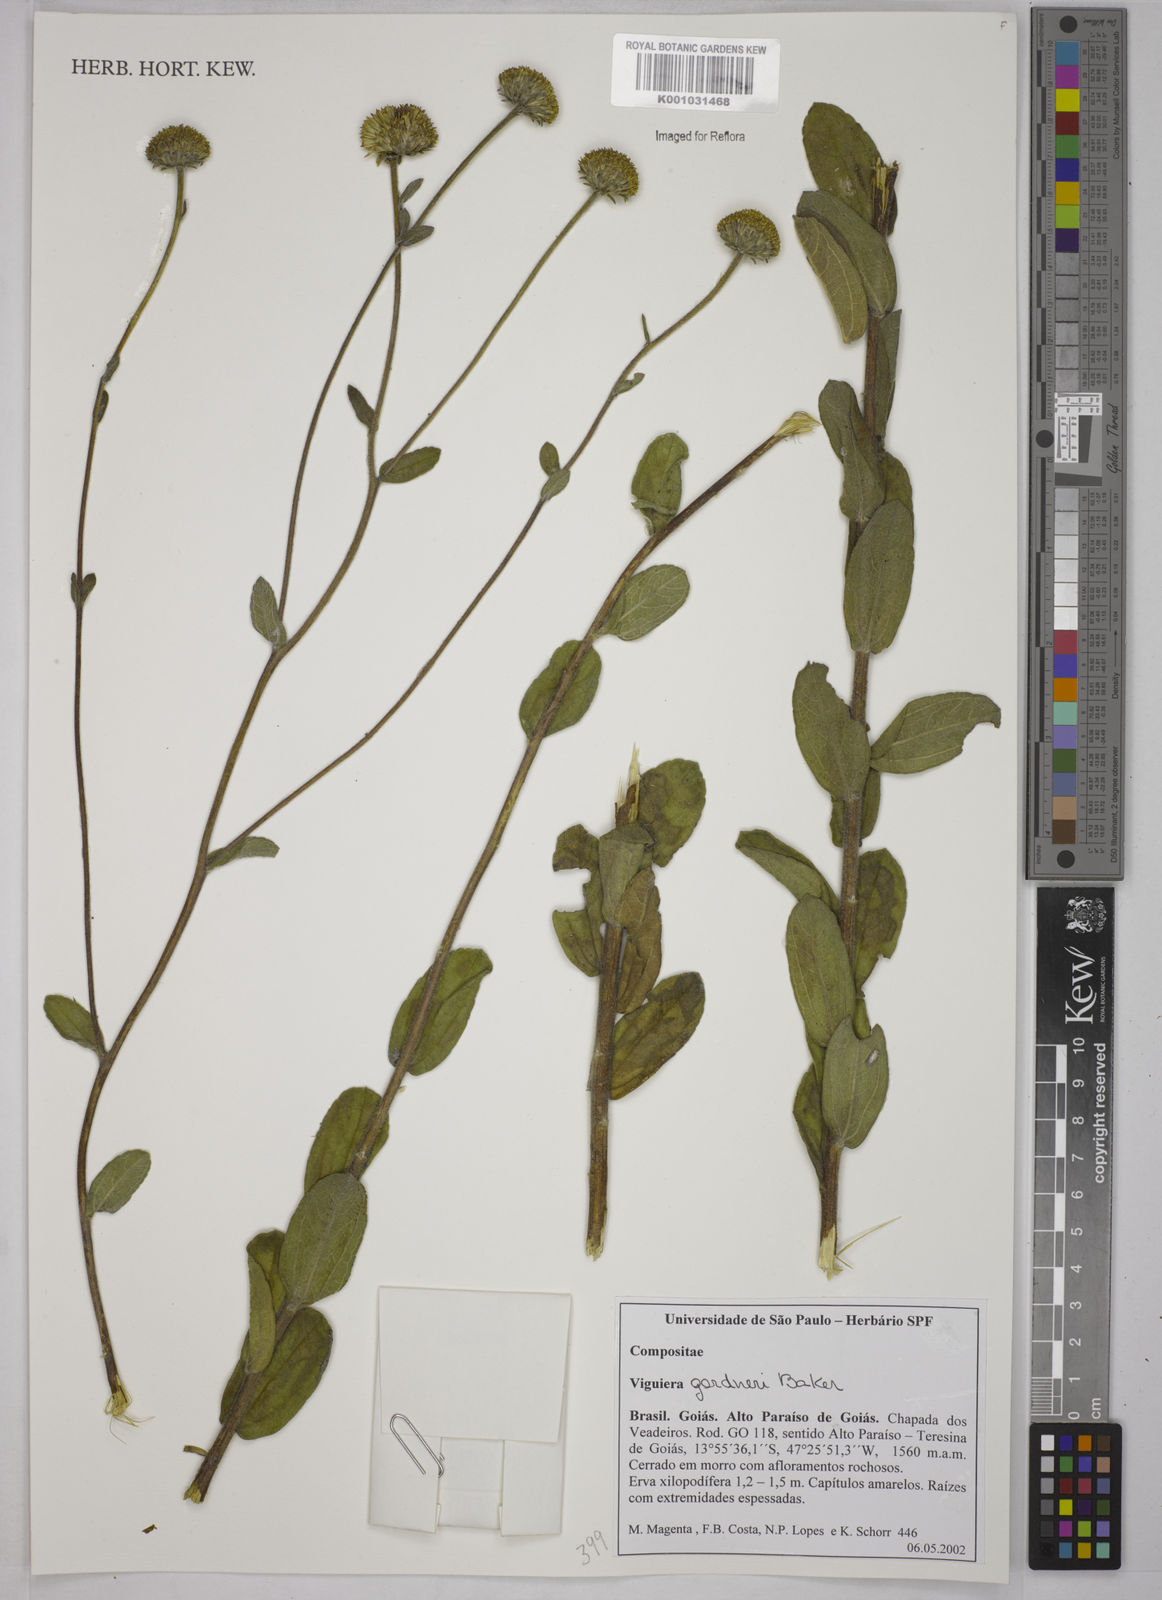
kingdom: Plantae
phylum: Tracheophyta
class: Magnoliopsida
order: Asterales
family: Asteraceae
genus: Aldama
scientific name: Aldama gardneri
